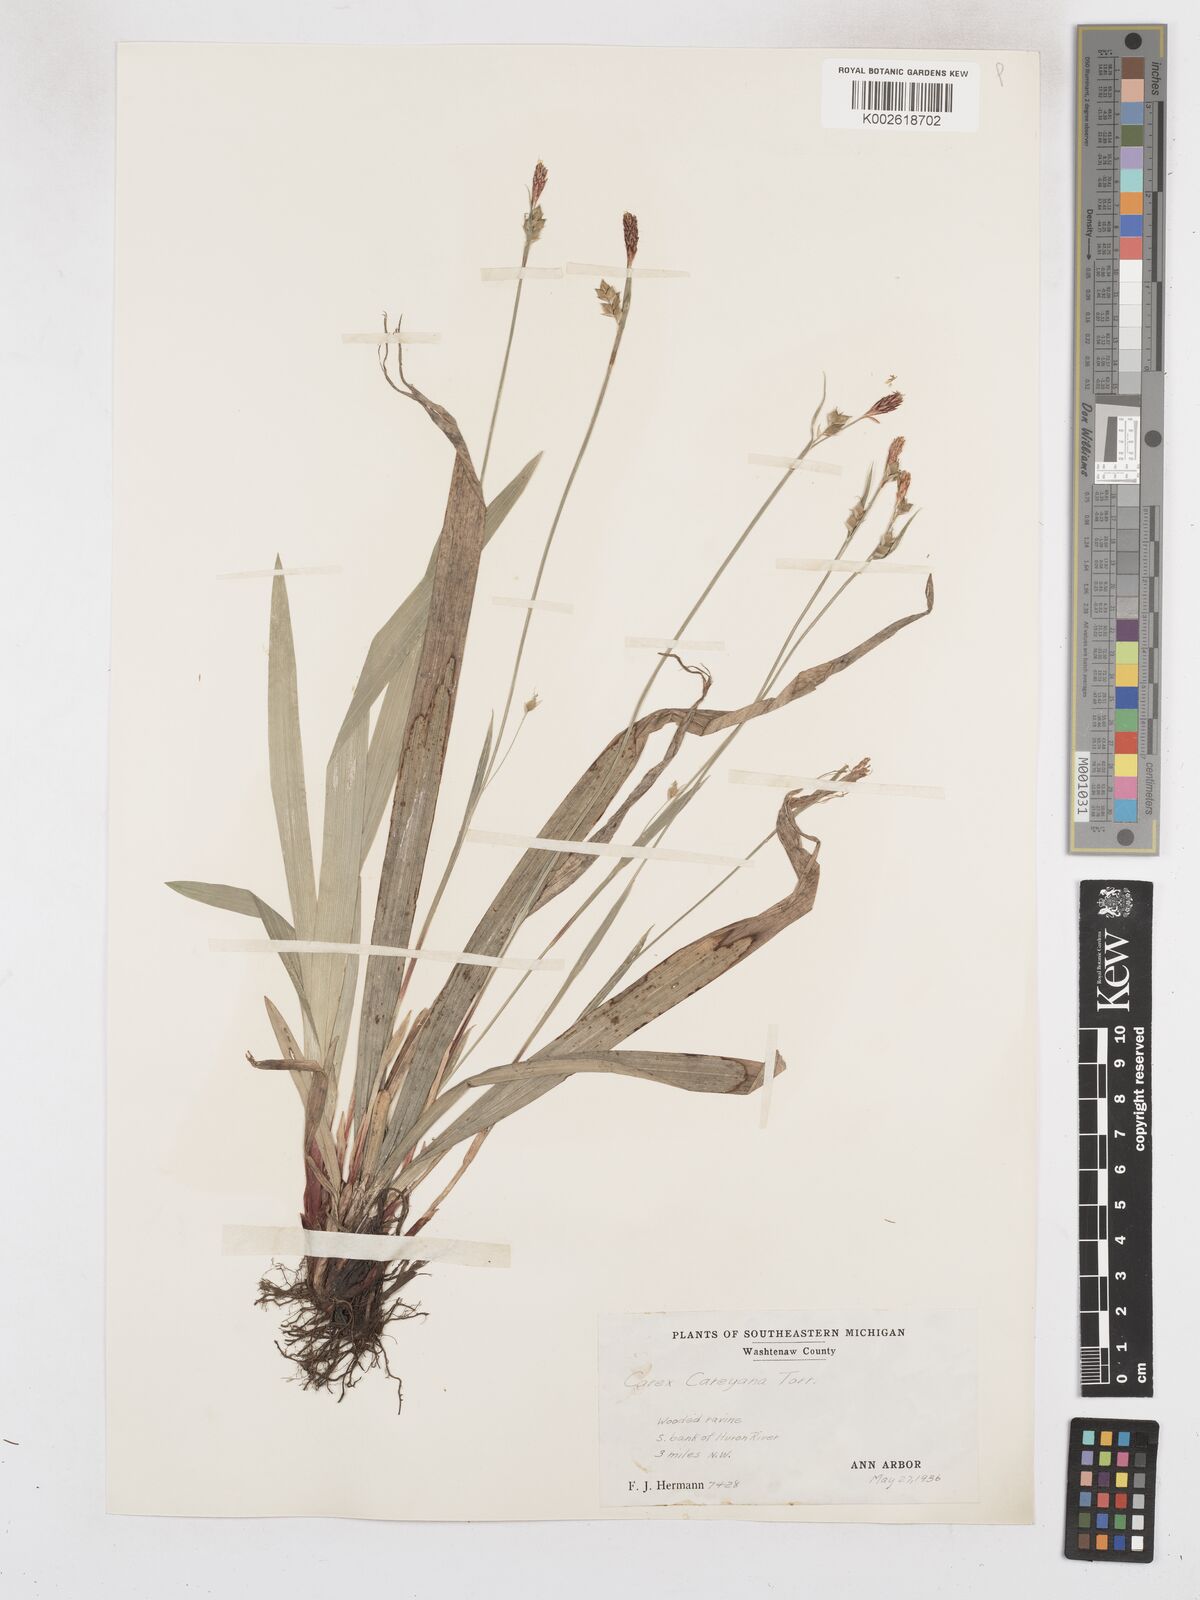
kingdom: Plantae
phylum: Tracheophyta
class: Liliopsida
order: Poales
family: Cyperaceae
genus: Carex
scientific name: Carex careyana
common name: Carey's sedge
